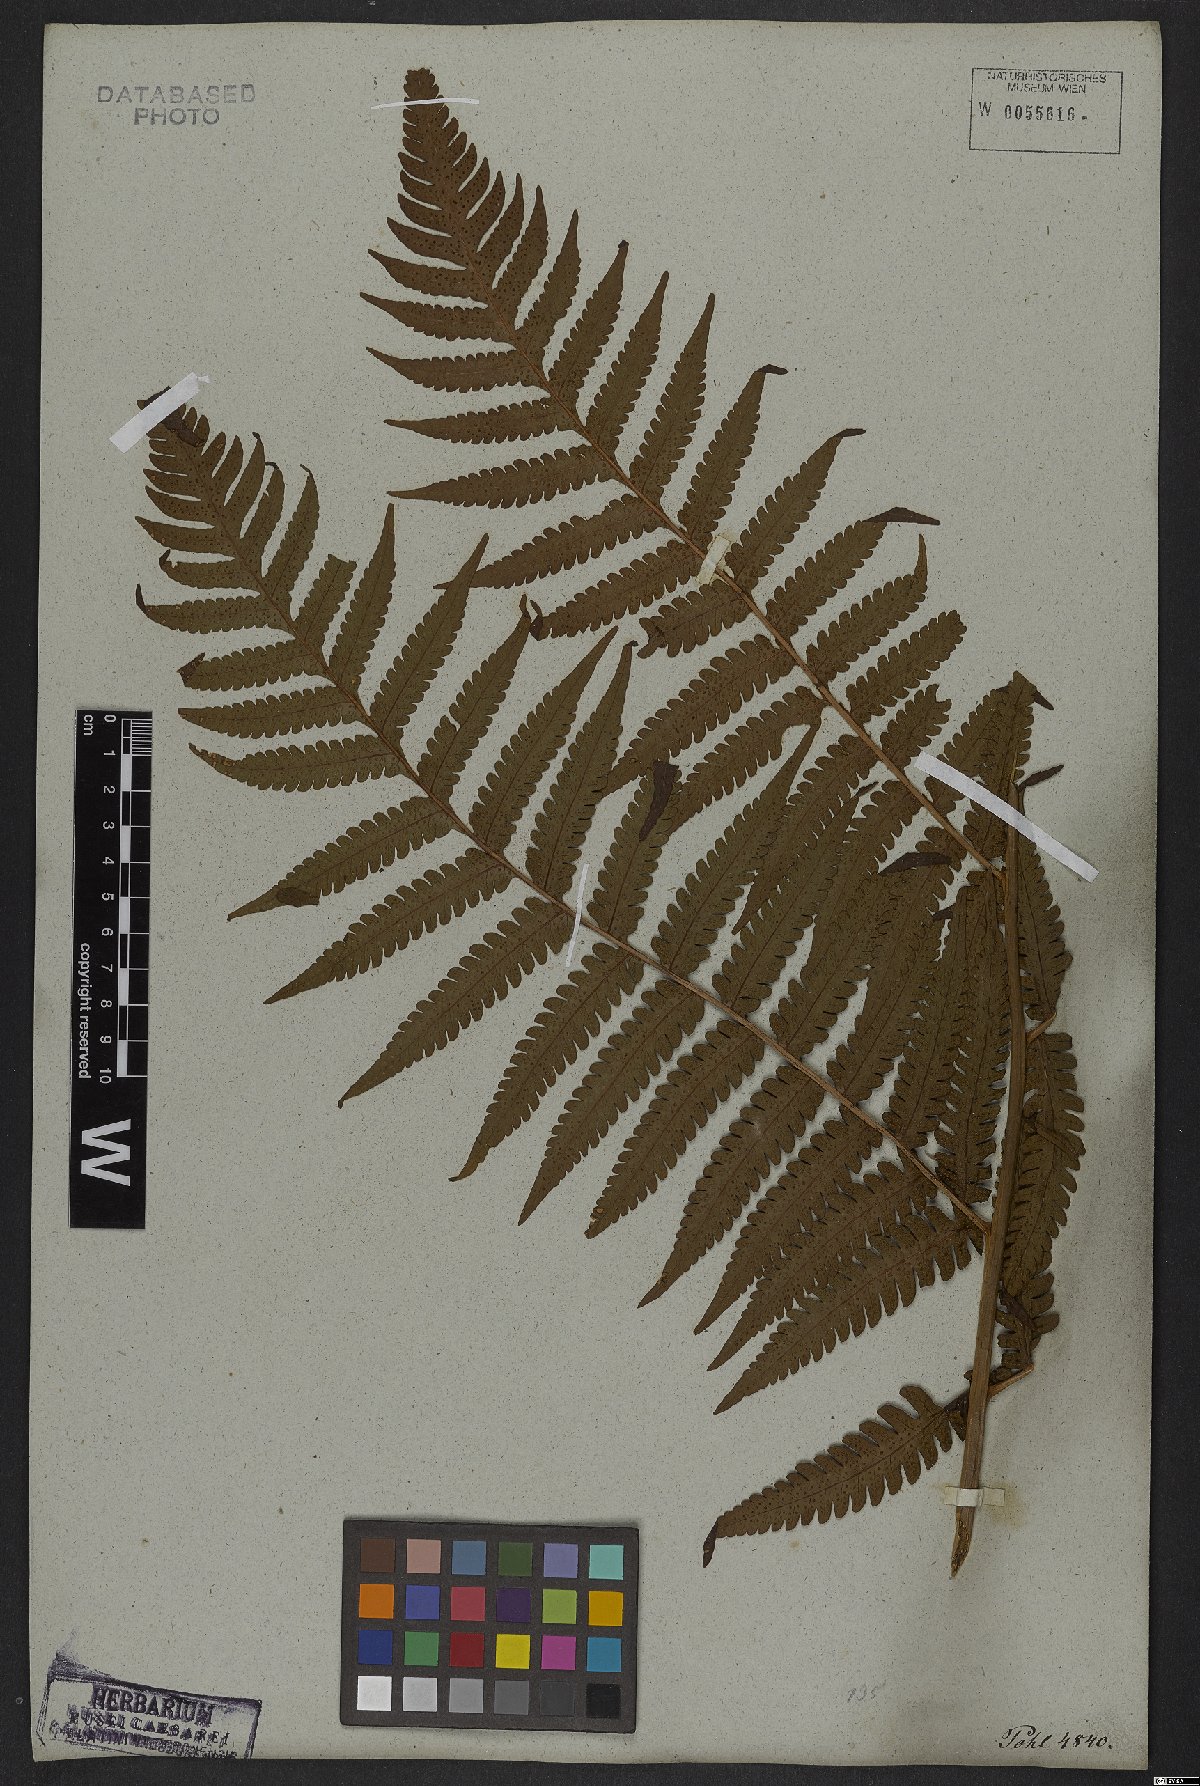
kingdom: Plantae
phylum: Tracheophyta
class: Polypodiopsida
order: Polypodiales
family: Dryopteridaceae
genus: Megalastrum
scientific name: Megalastrum connexum
